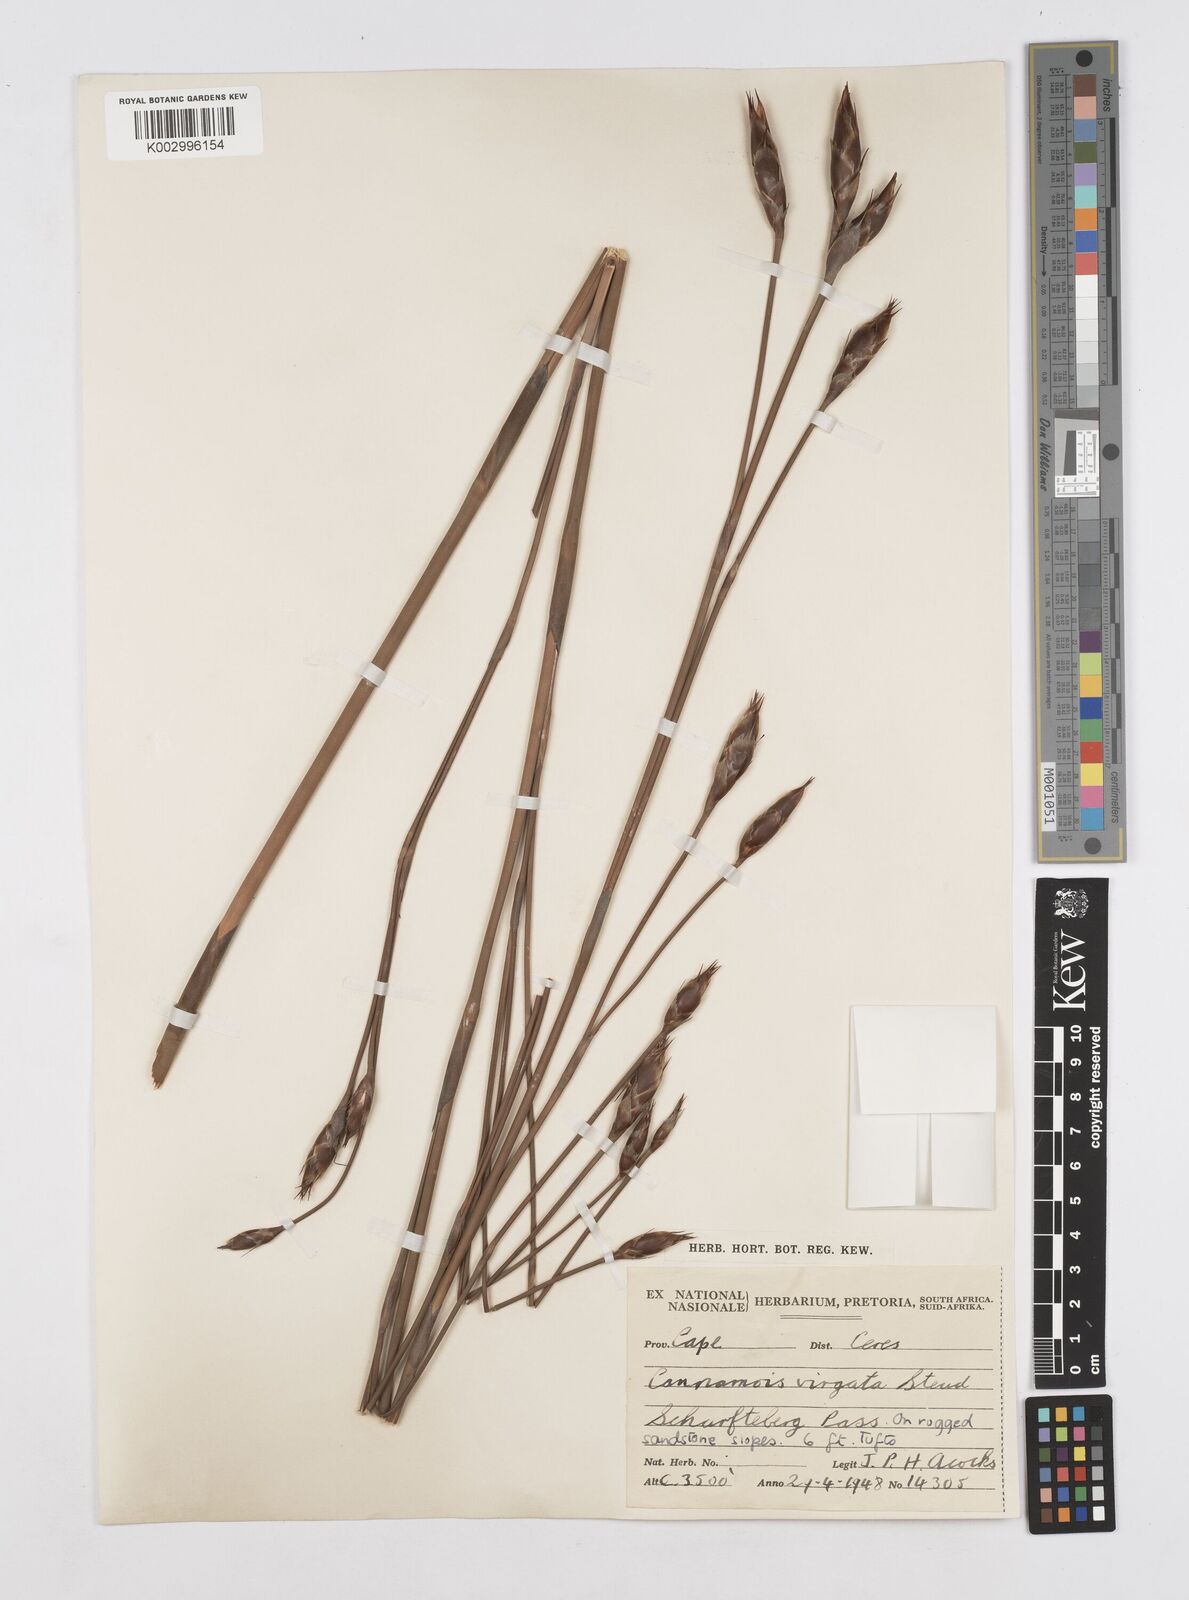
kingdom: Plantae
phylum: Tracheophyta
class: Liliopsida
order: Poales
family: Restionaceae
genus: Cannomois
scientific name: Cannomois virgata
